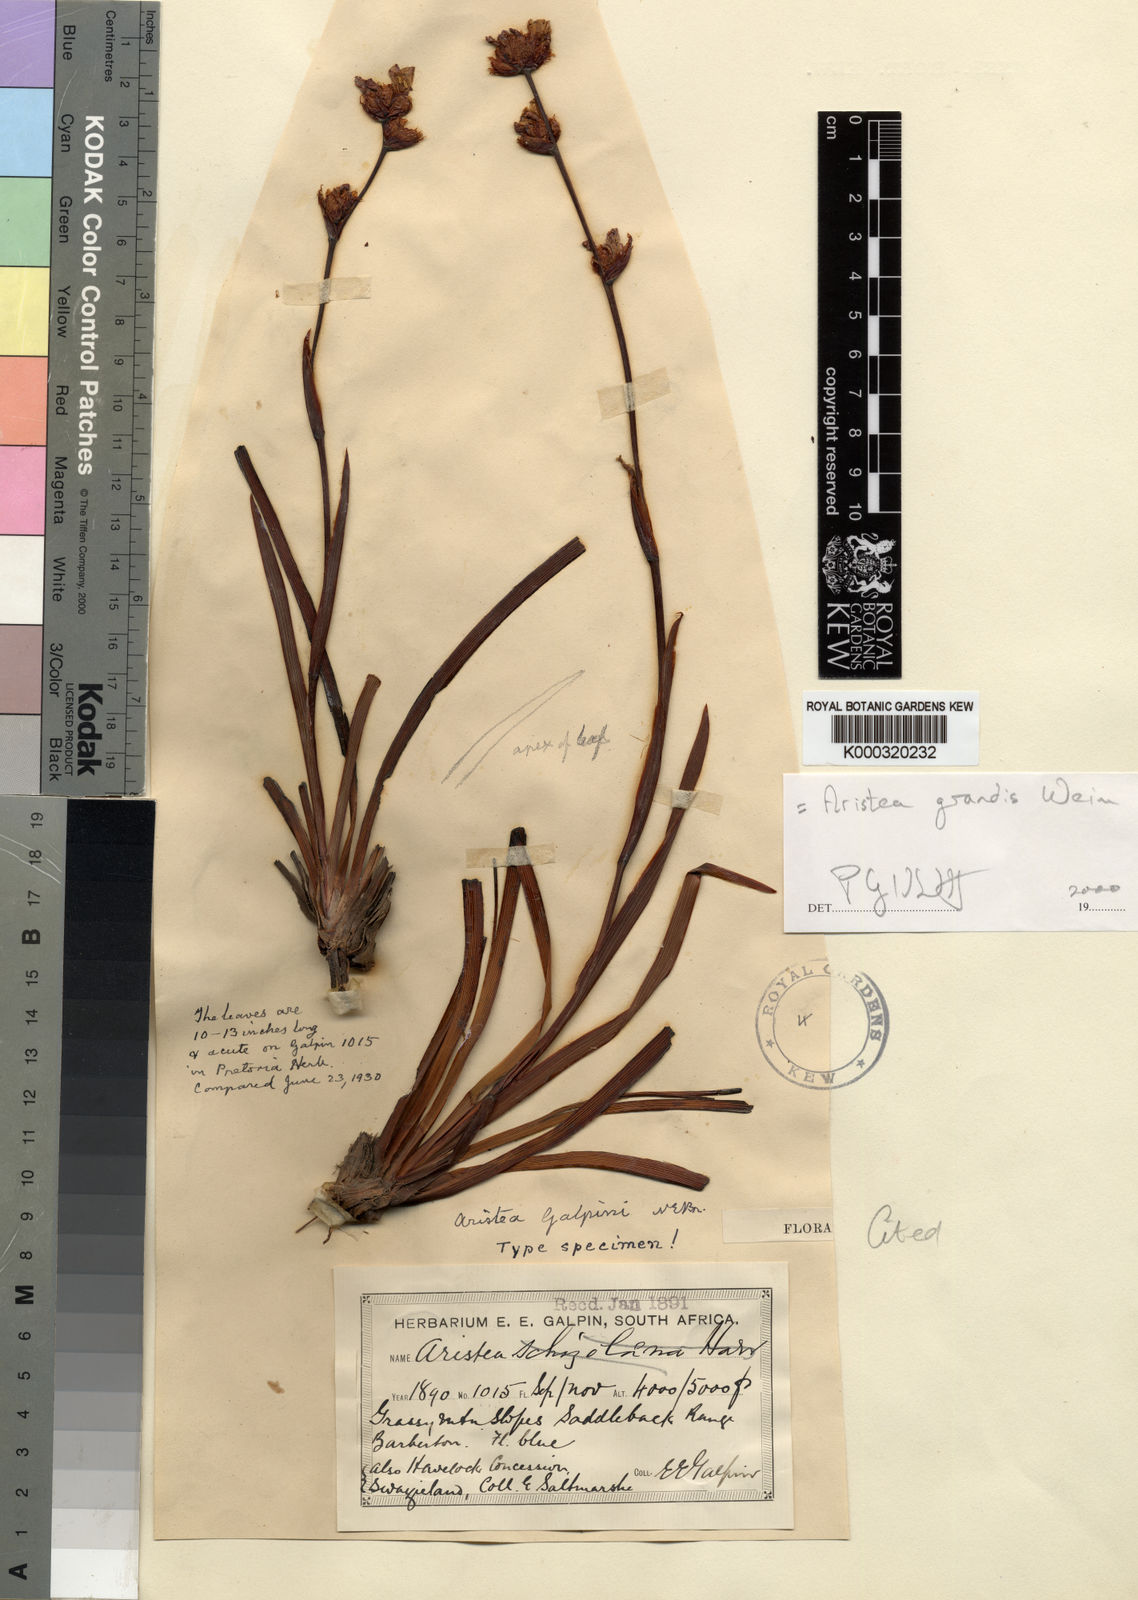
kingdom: Plantae
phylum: Tracheophyta
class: Liliopsida
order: Asparagales
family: Iridaceae
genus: Aristea
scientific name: Aristea grandis
